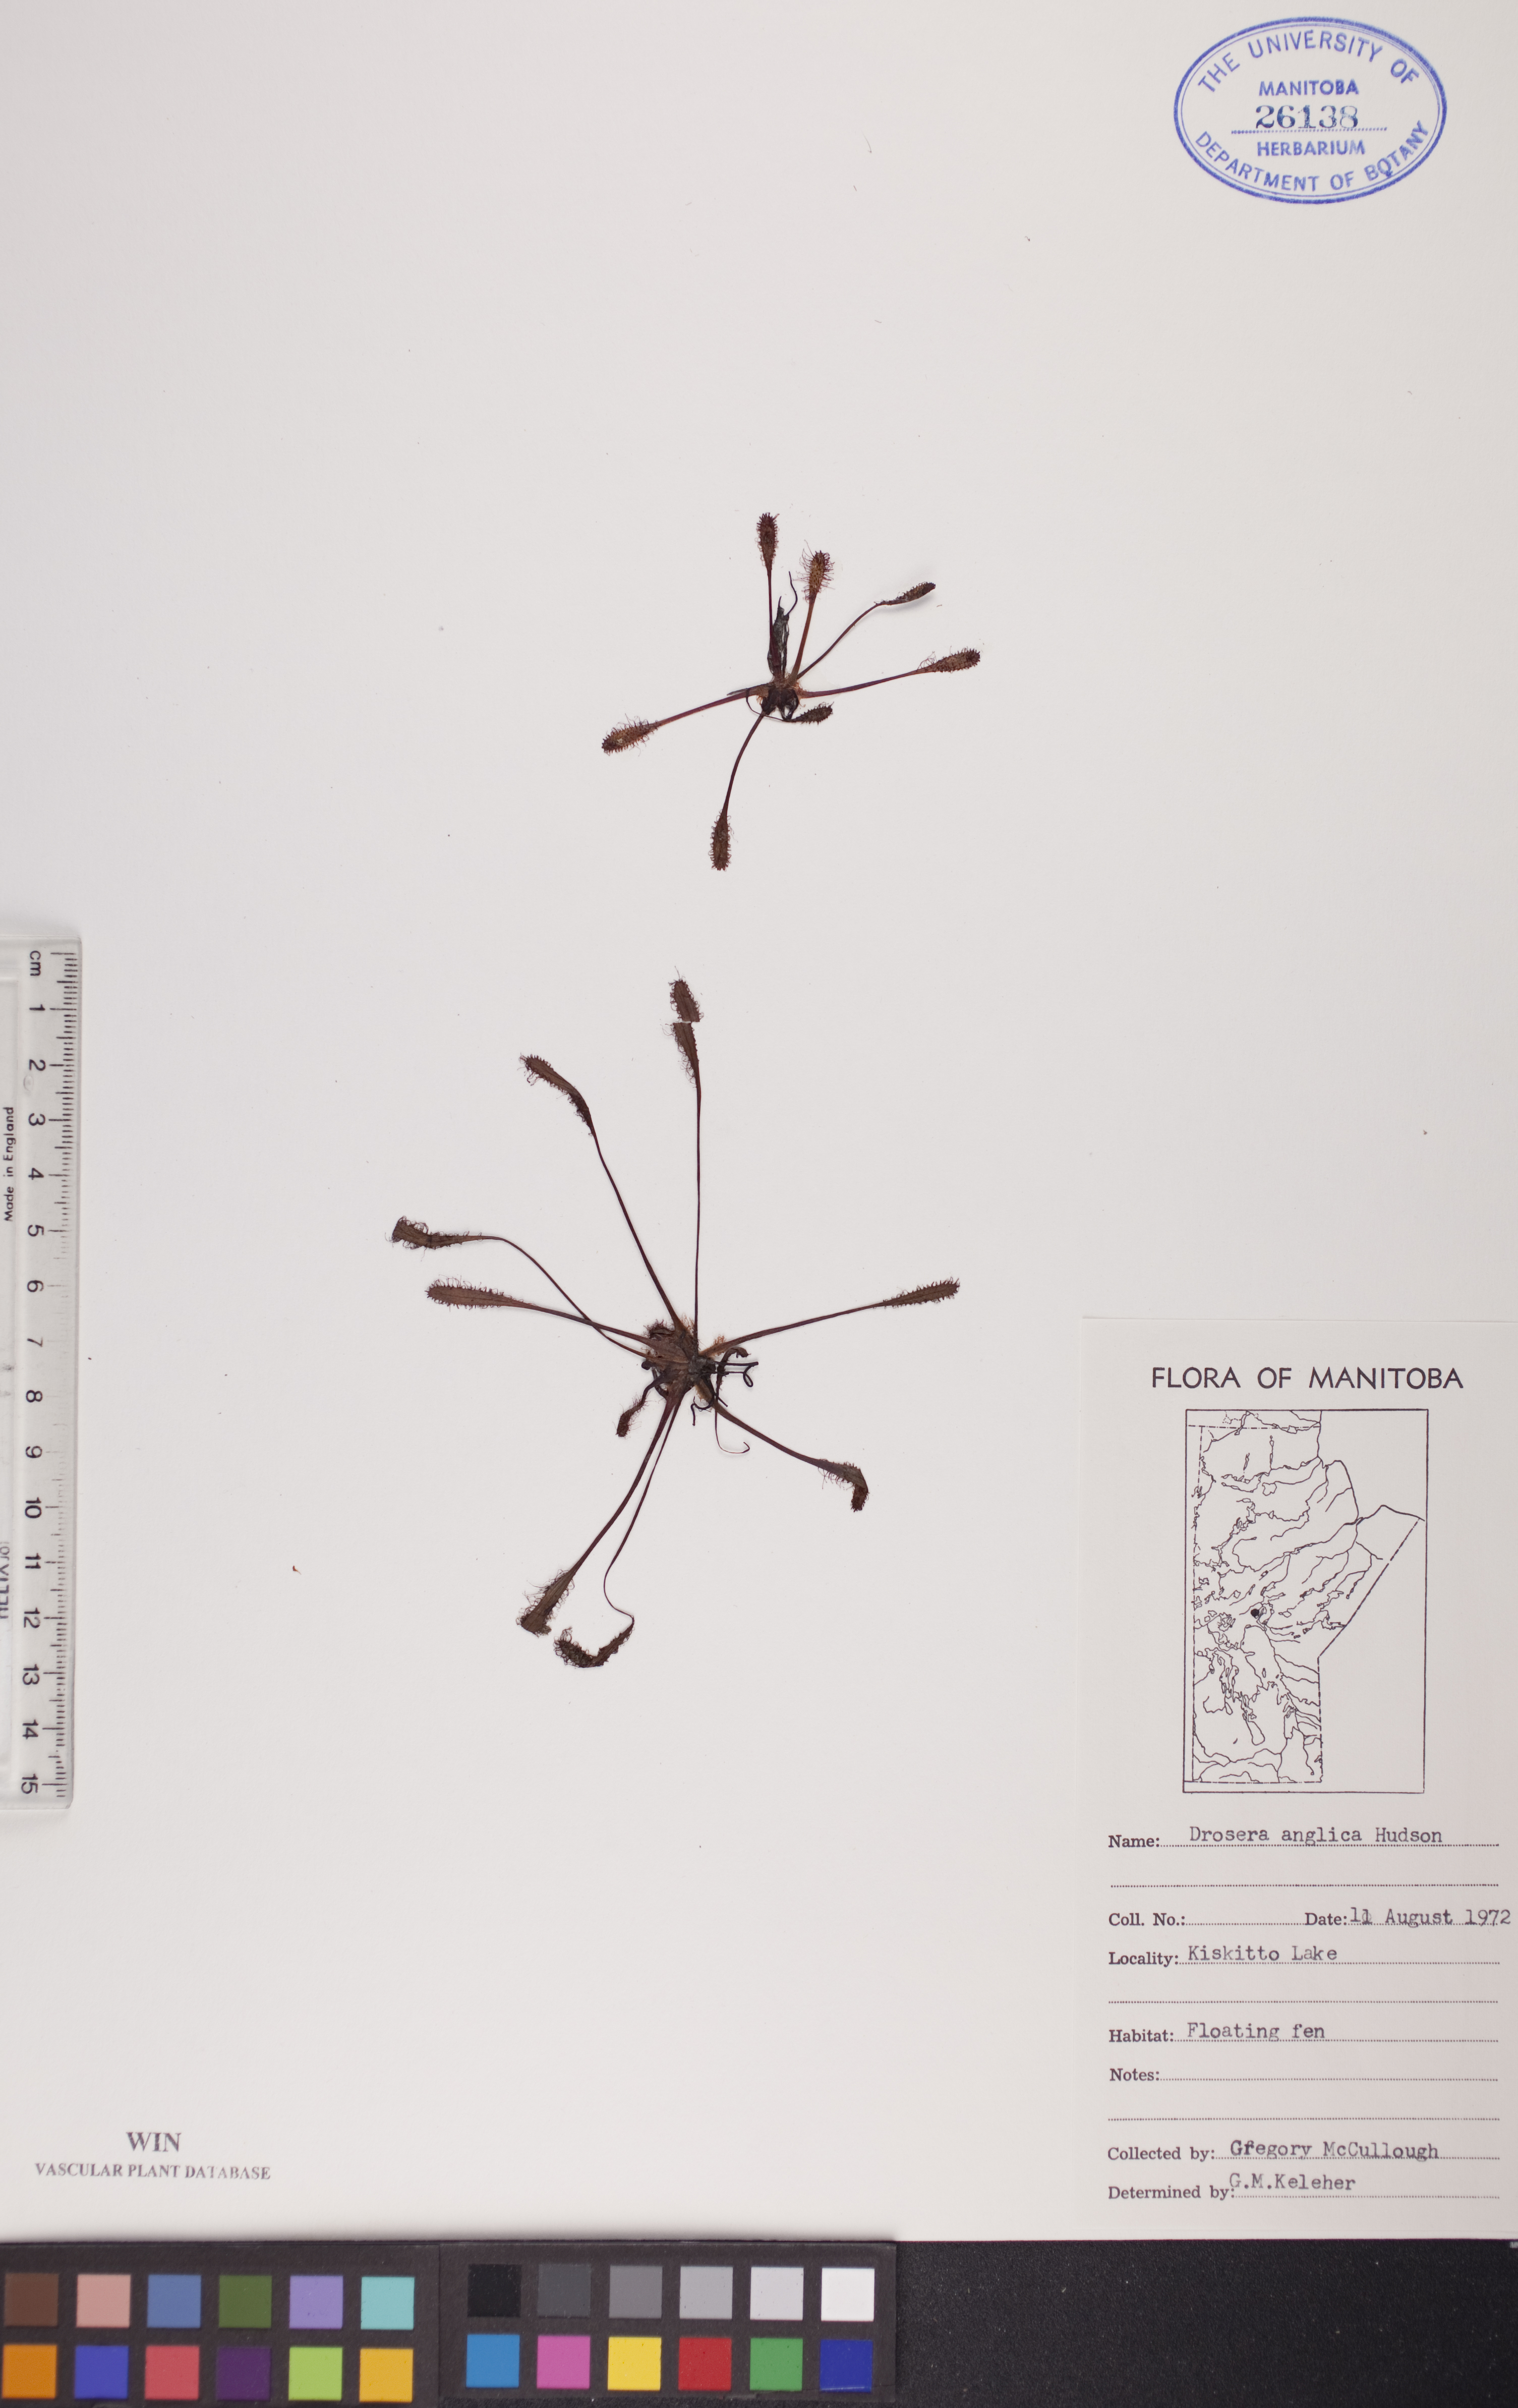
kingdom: Plantae
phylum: Tracheophyta
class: Magnoliopsida
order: Caryophyllales
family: Droseraceae
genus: Drosera
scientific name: Drosera anglica
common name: Great sundew
